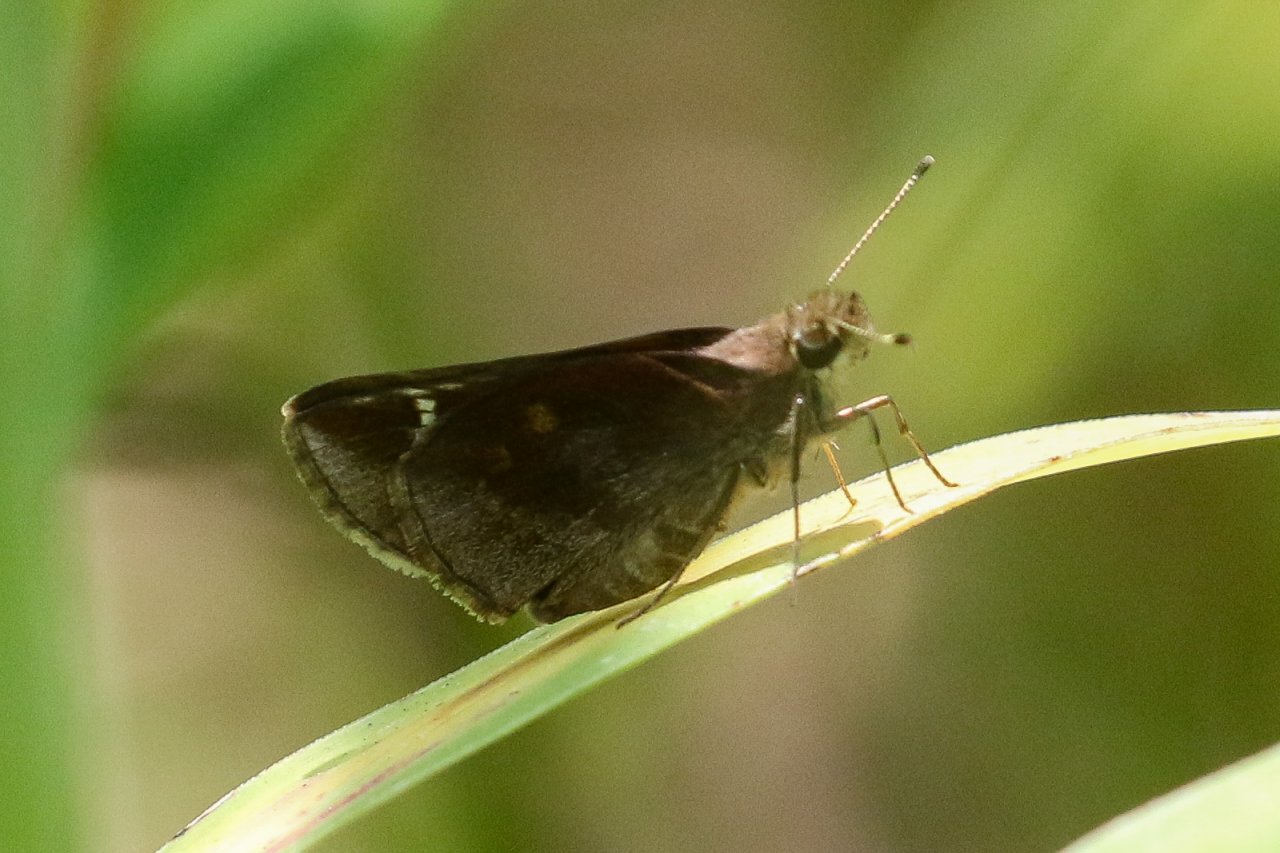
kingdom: Animalia
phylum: Arthropoda
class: Insecta
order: Lepidoptera
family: Hesperiidae
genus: Lerema
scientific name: Lerema accius
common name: Clouded Skipper
